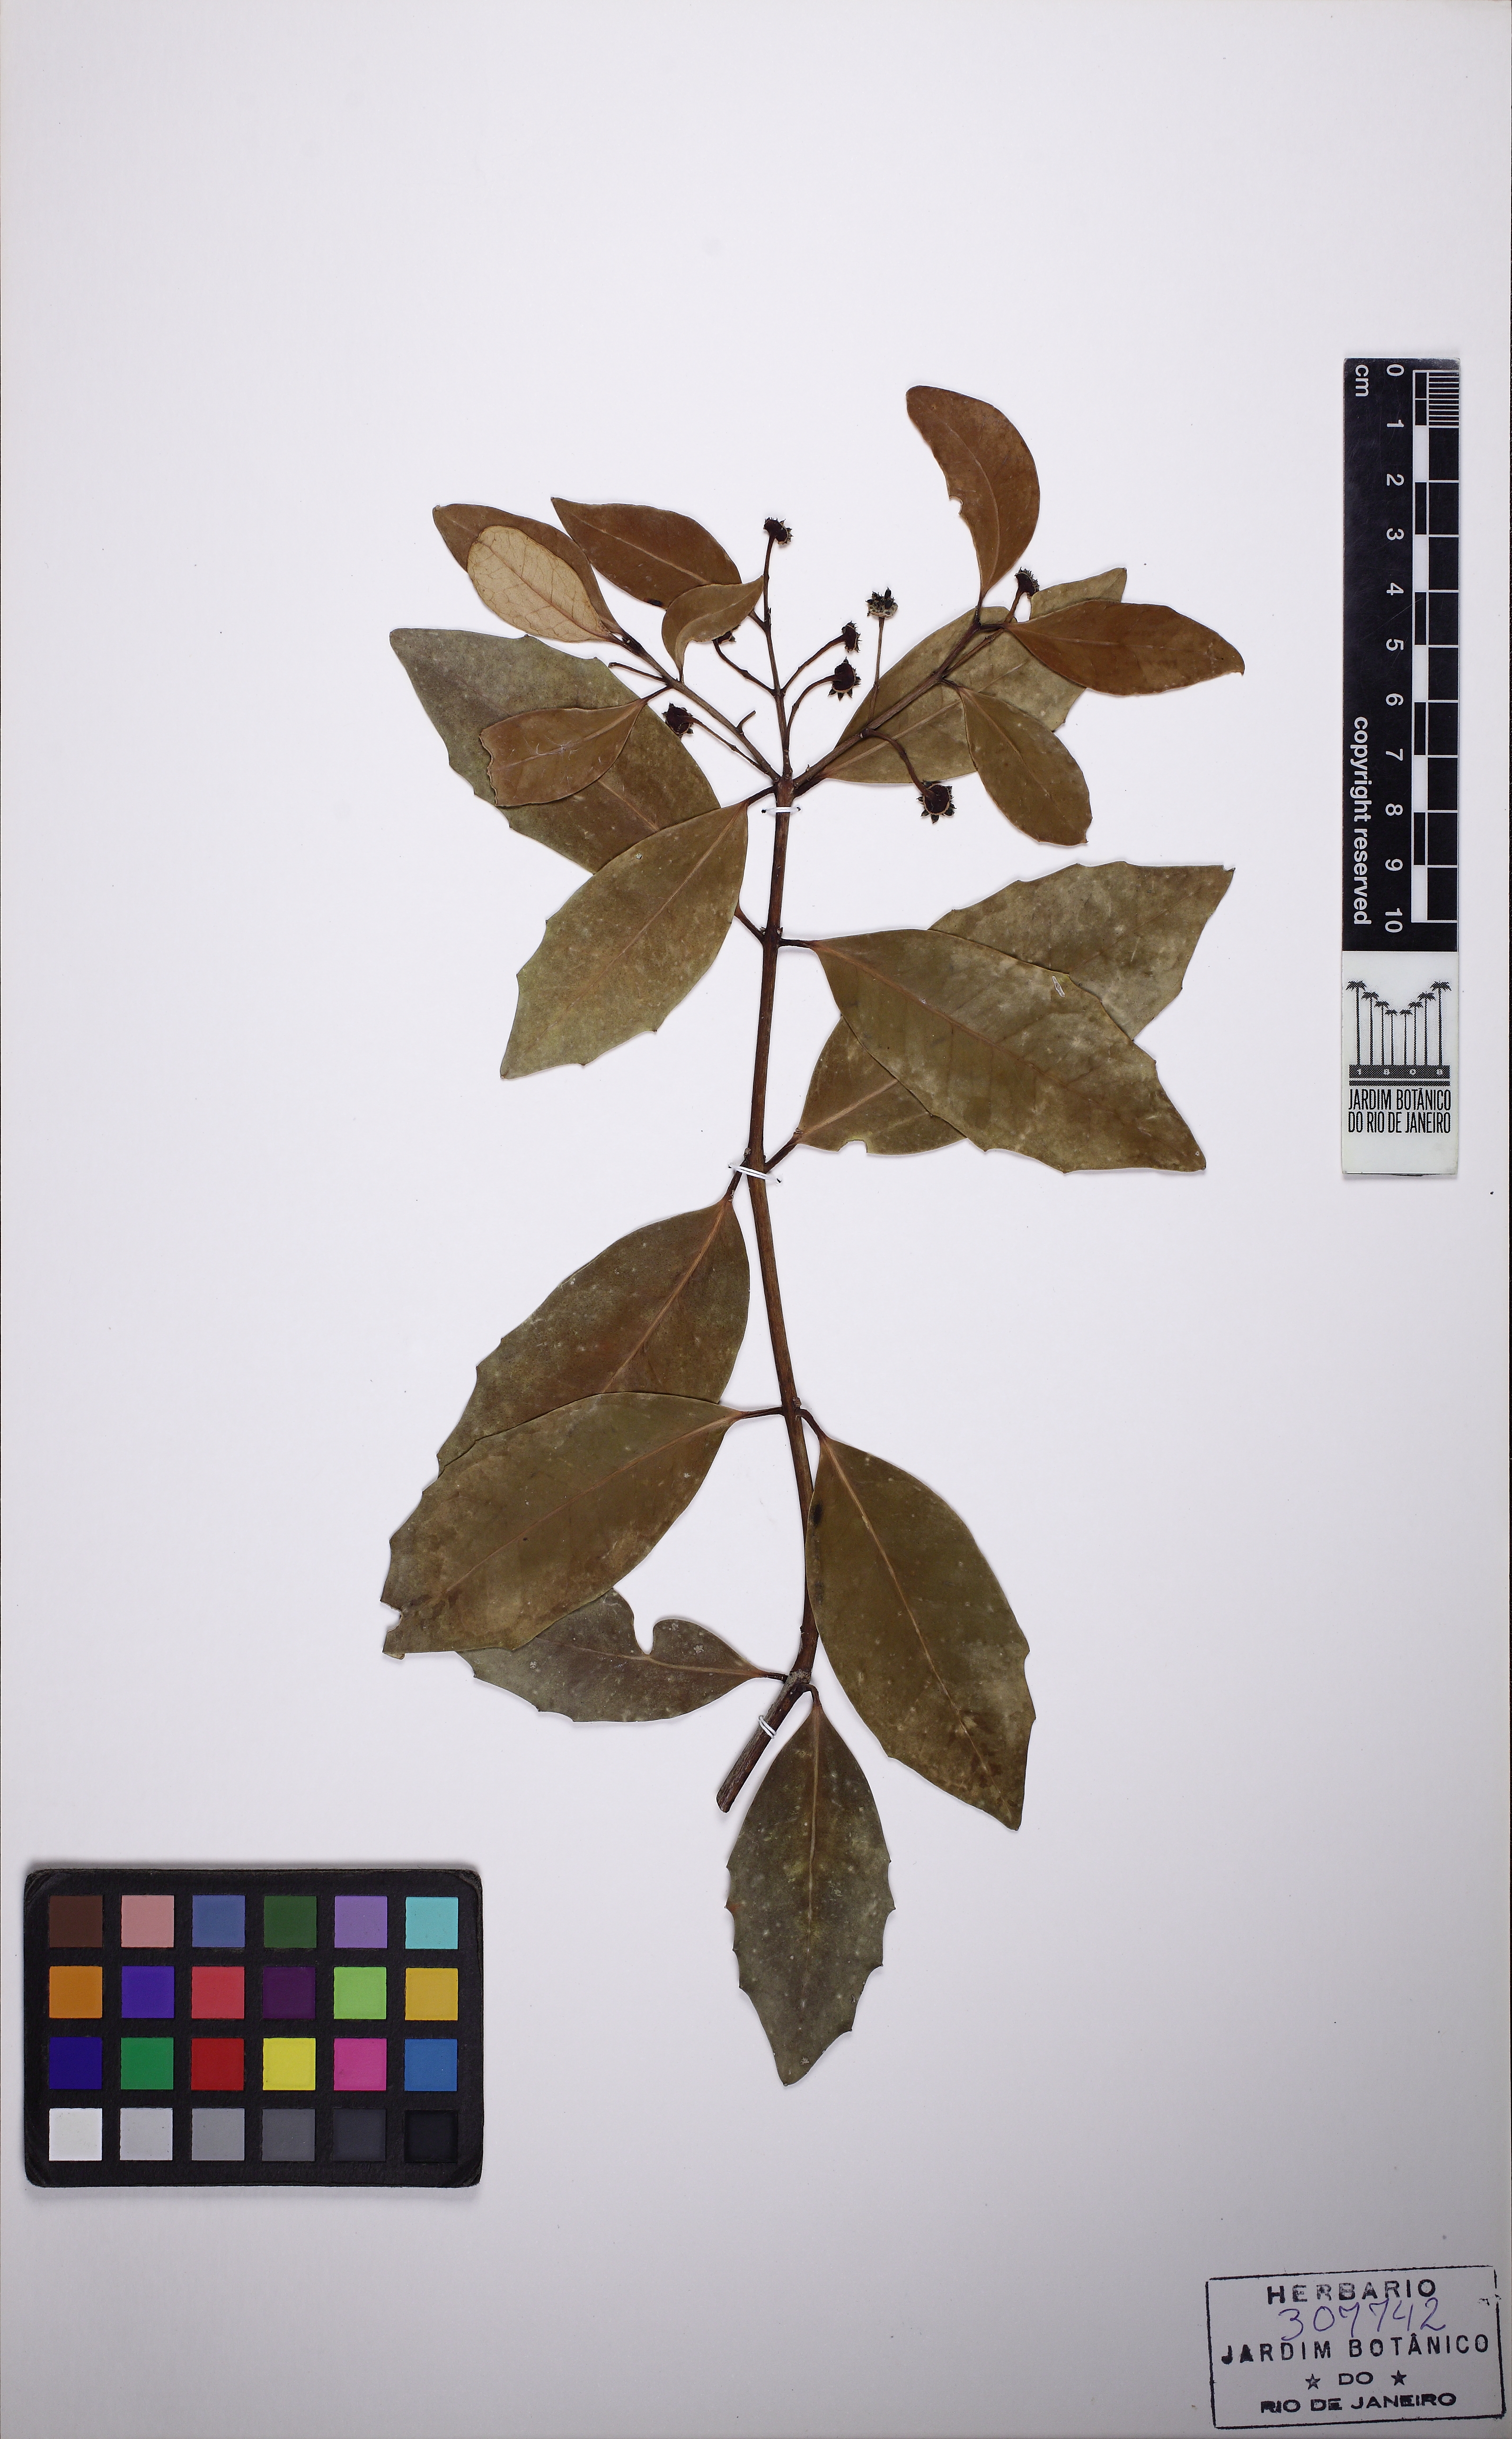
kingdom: Plantae
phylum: Tracheophyta
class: Magnoliopsida
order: Laurales
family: Monimiaceae
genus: Macropeplus
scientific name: Macropeplus ligustrinus
